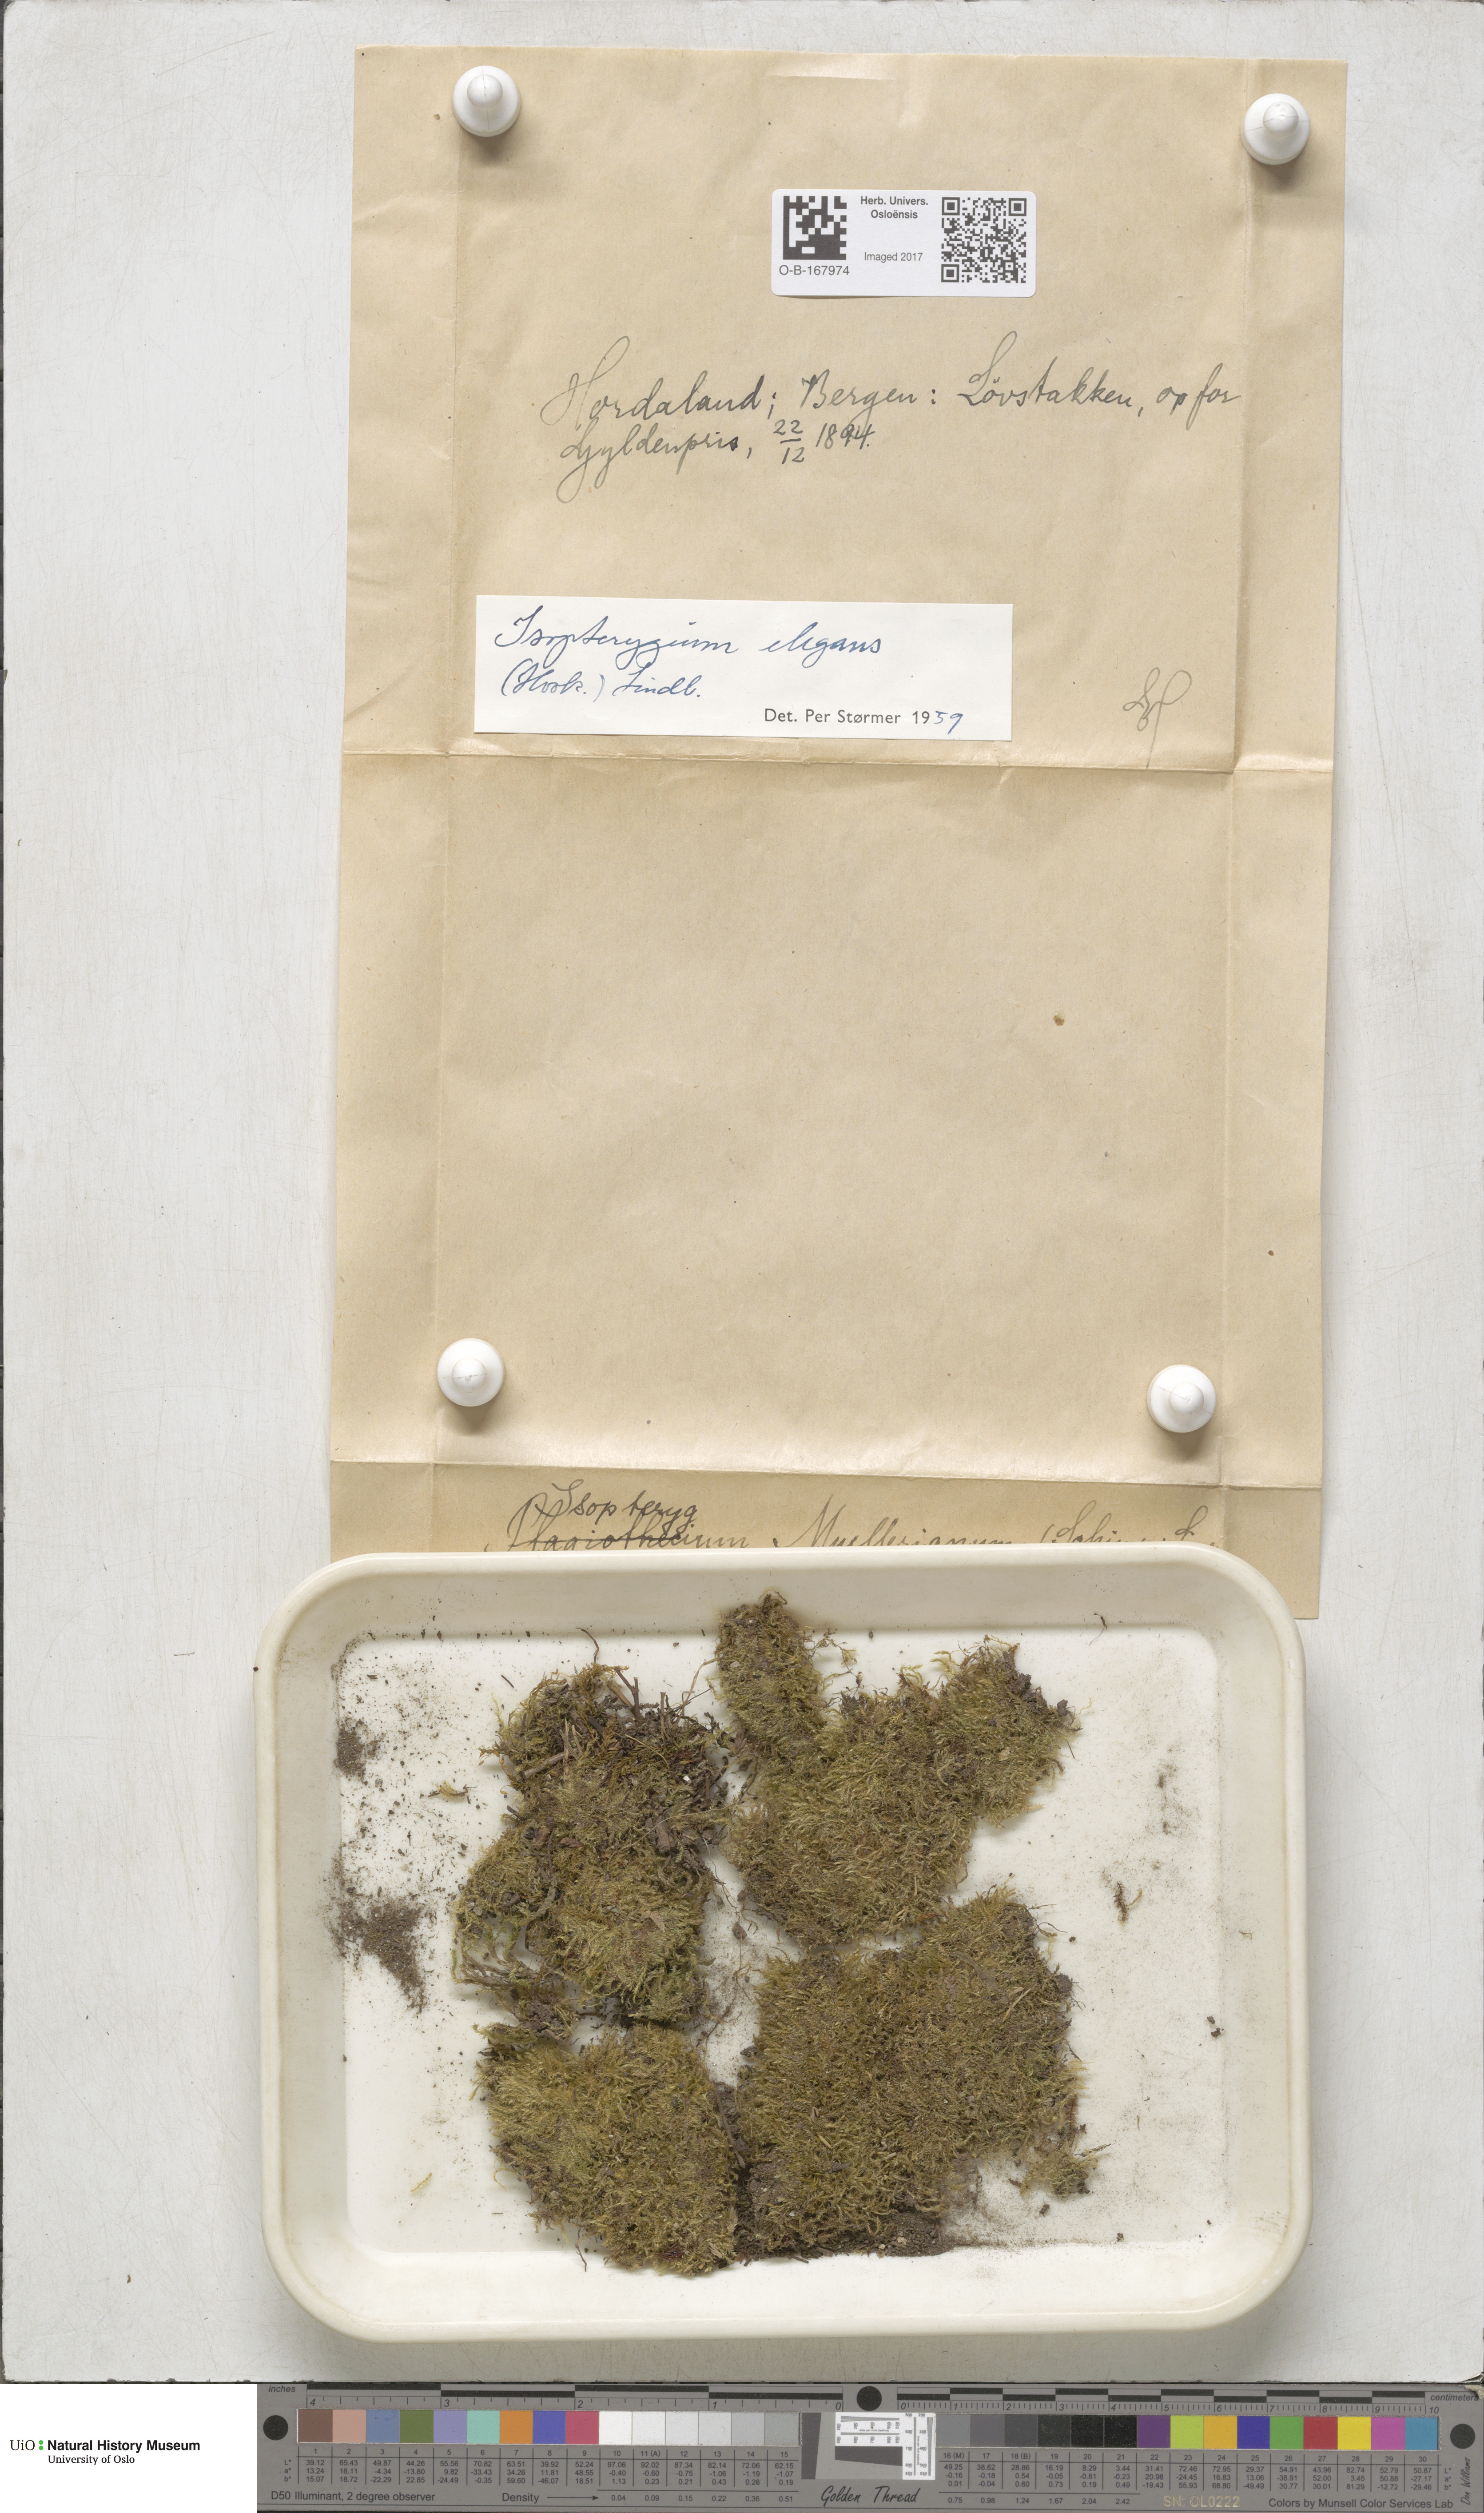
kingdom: Plantae
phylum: Bryophyta
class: Bryopsida
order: Hypnales
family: Plagiotheciaceae
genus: Pseudotaxiphyllum
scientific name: Pseudotaxiphyllum elegans
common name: Elegant silk moss
